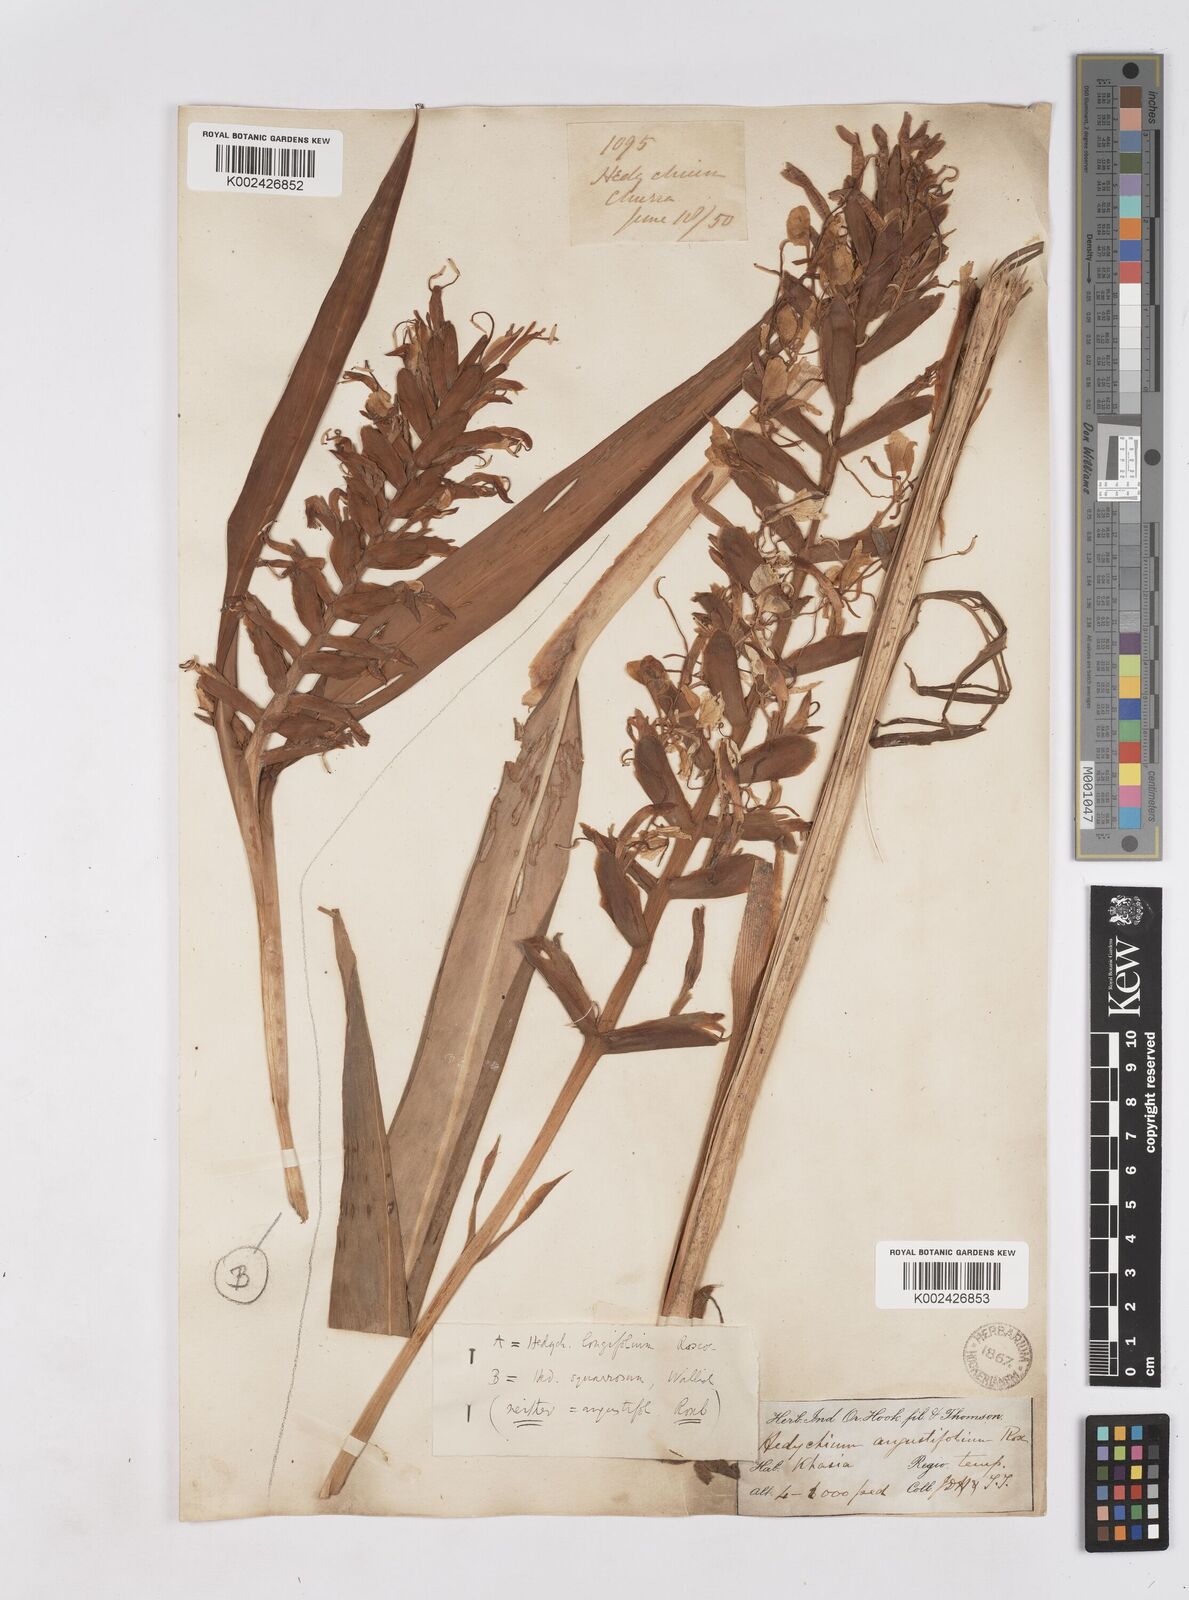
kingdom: Plantae
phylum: Tracheophyta
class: Liliopsida
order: Zingiberales
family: Zingiberaceae
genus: Hedychium
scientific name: Hedychium coccineum
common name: Red ginger-lily
